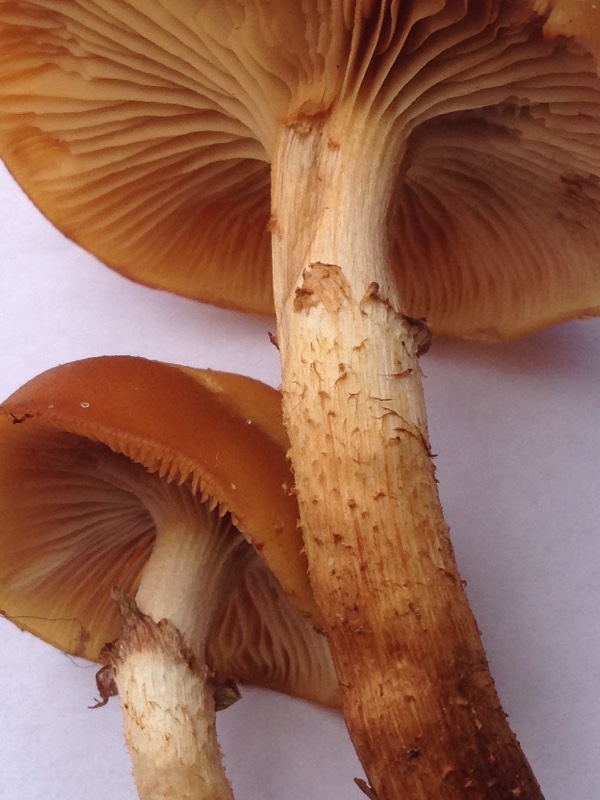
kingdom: Fungi
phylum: Basidiomycota
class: Agaricomycetes
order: Agaricales
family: Strophariaceae
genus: Kuehneromyces
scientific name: Kuehneromyces mutabilis
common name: foranderlig skælhat
